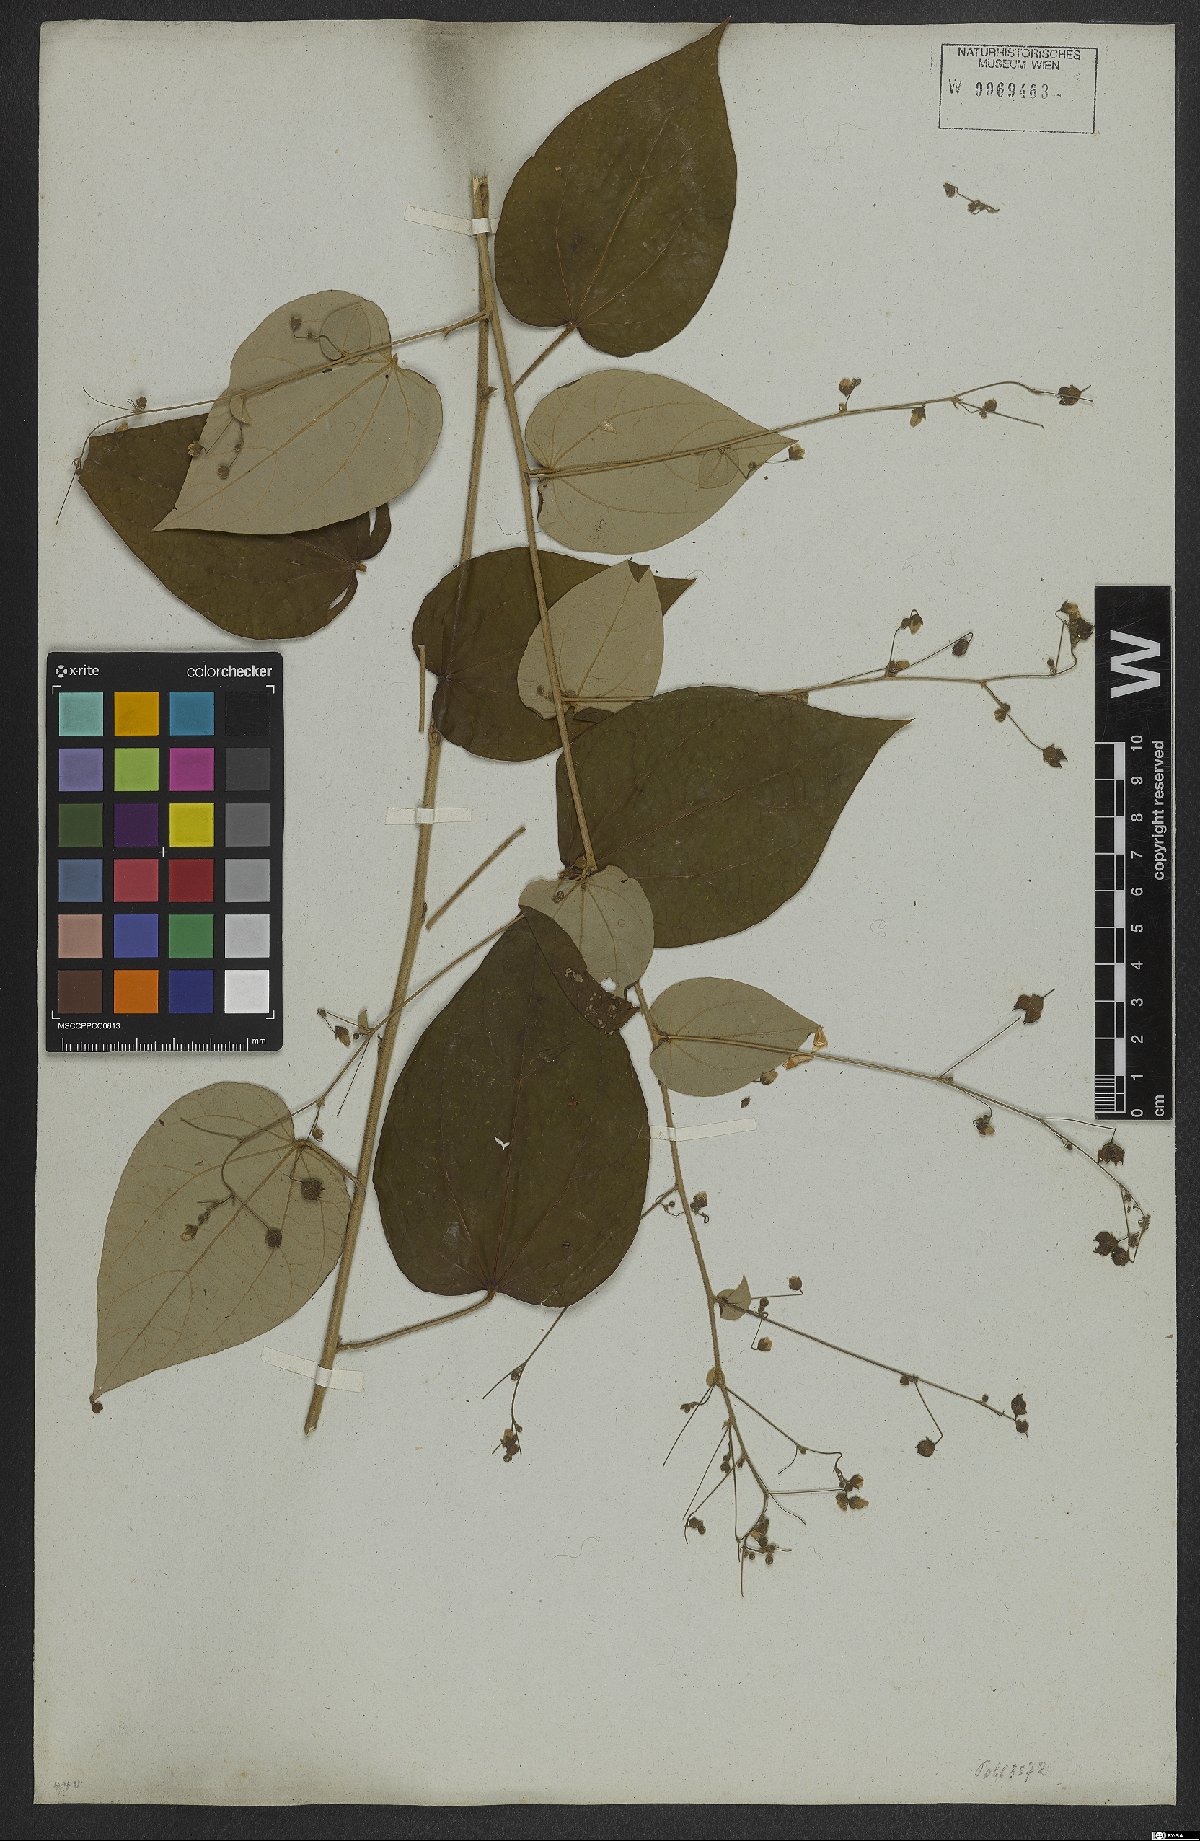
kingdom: Plantae
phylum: Tracheophyta
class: Magnoliopsida
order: Malvales
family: Malvaceae
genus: Wissadula
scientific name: Wissadula hernandioides
